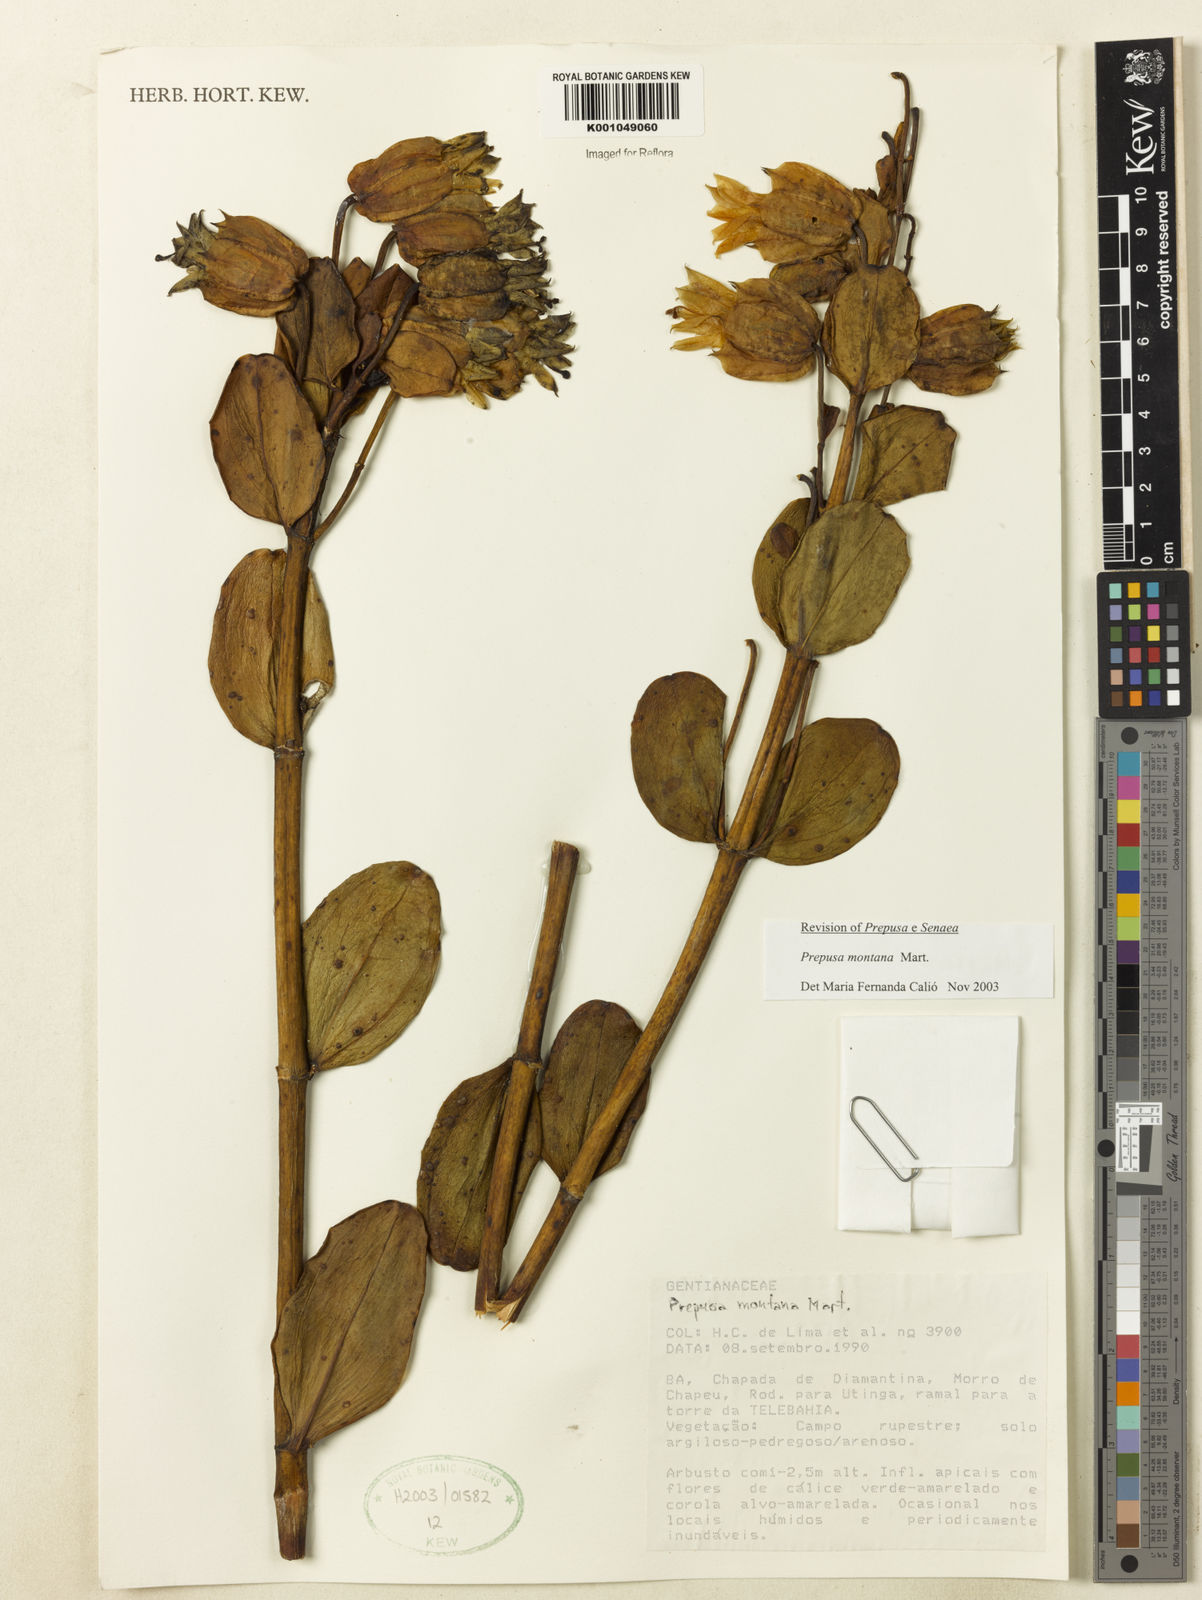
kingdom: Plantae
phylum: Tracheophyta
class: Magnoliopsida
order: Gentianales
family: Gentianaceae
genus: Prepusa
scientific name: Prepusa connata
